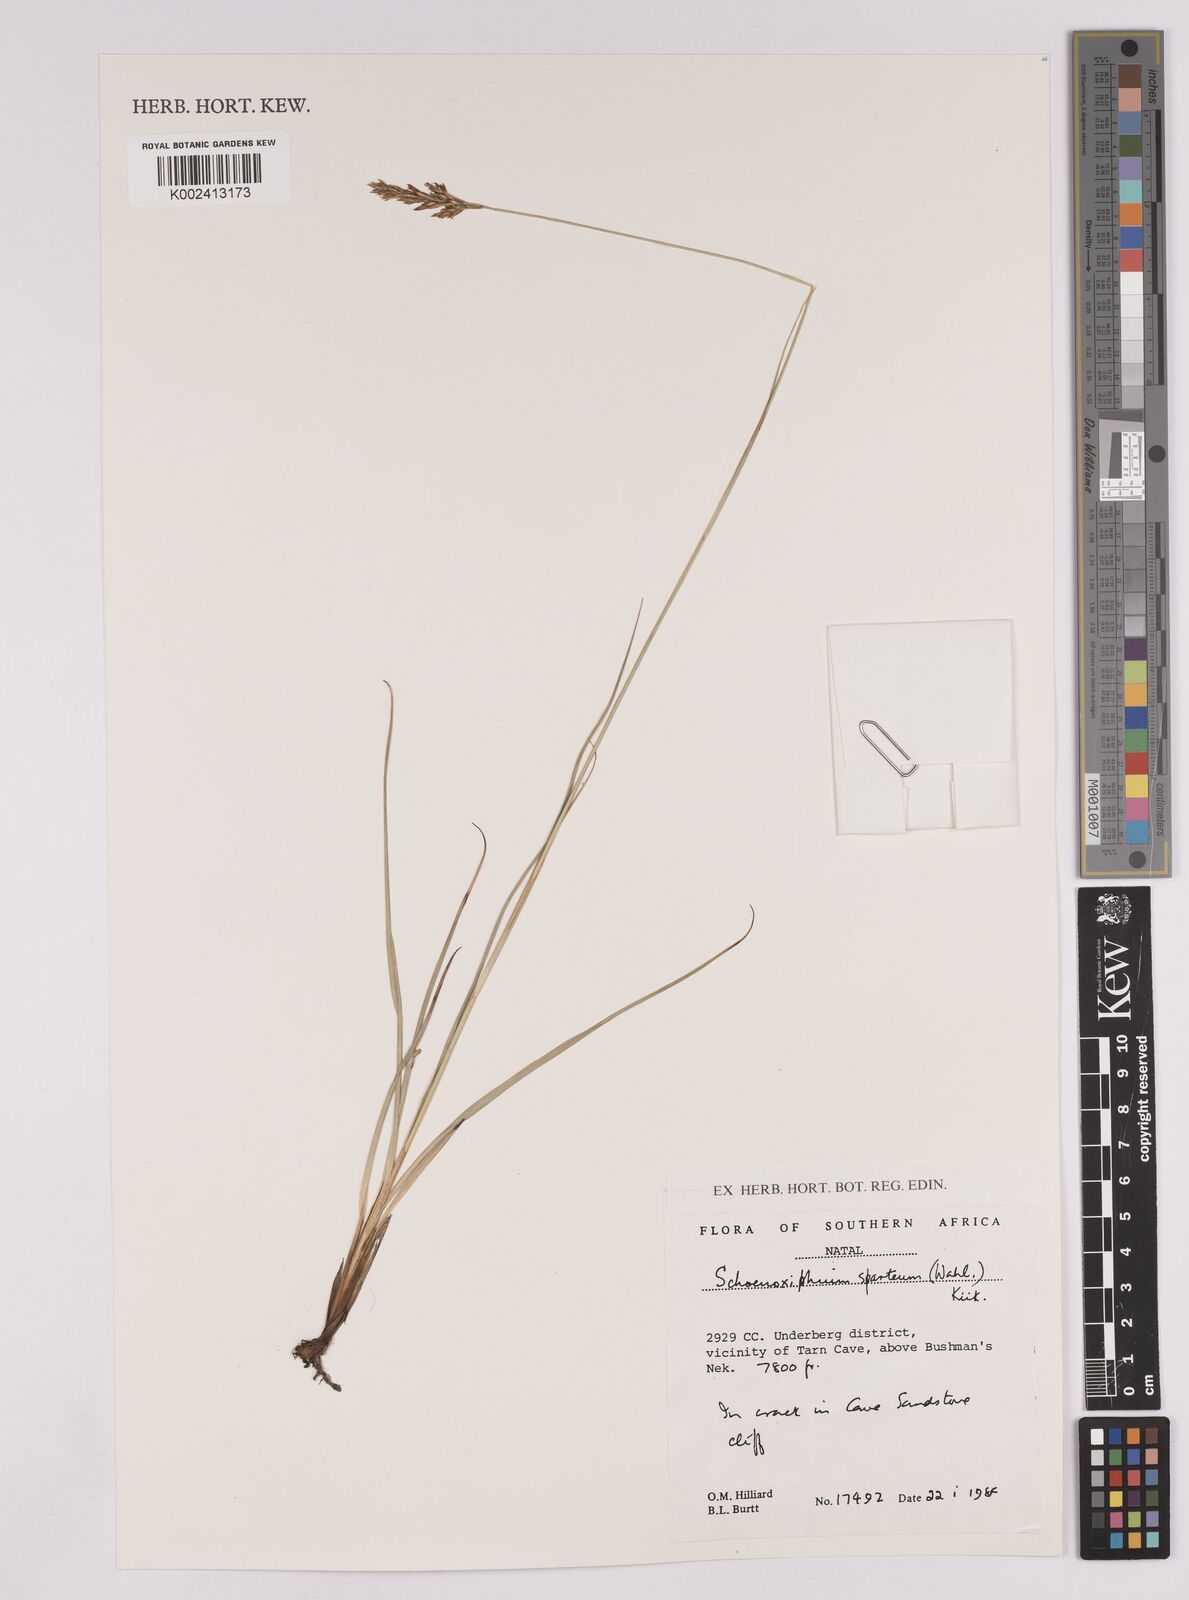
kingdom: Plantae
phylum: Tracheophyta
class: Liliopsida
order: Poales
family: Cyperaceae
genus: Carex
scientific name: Carex spartea
